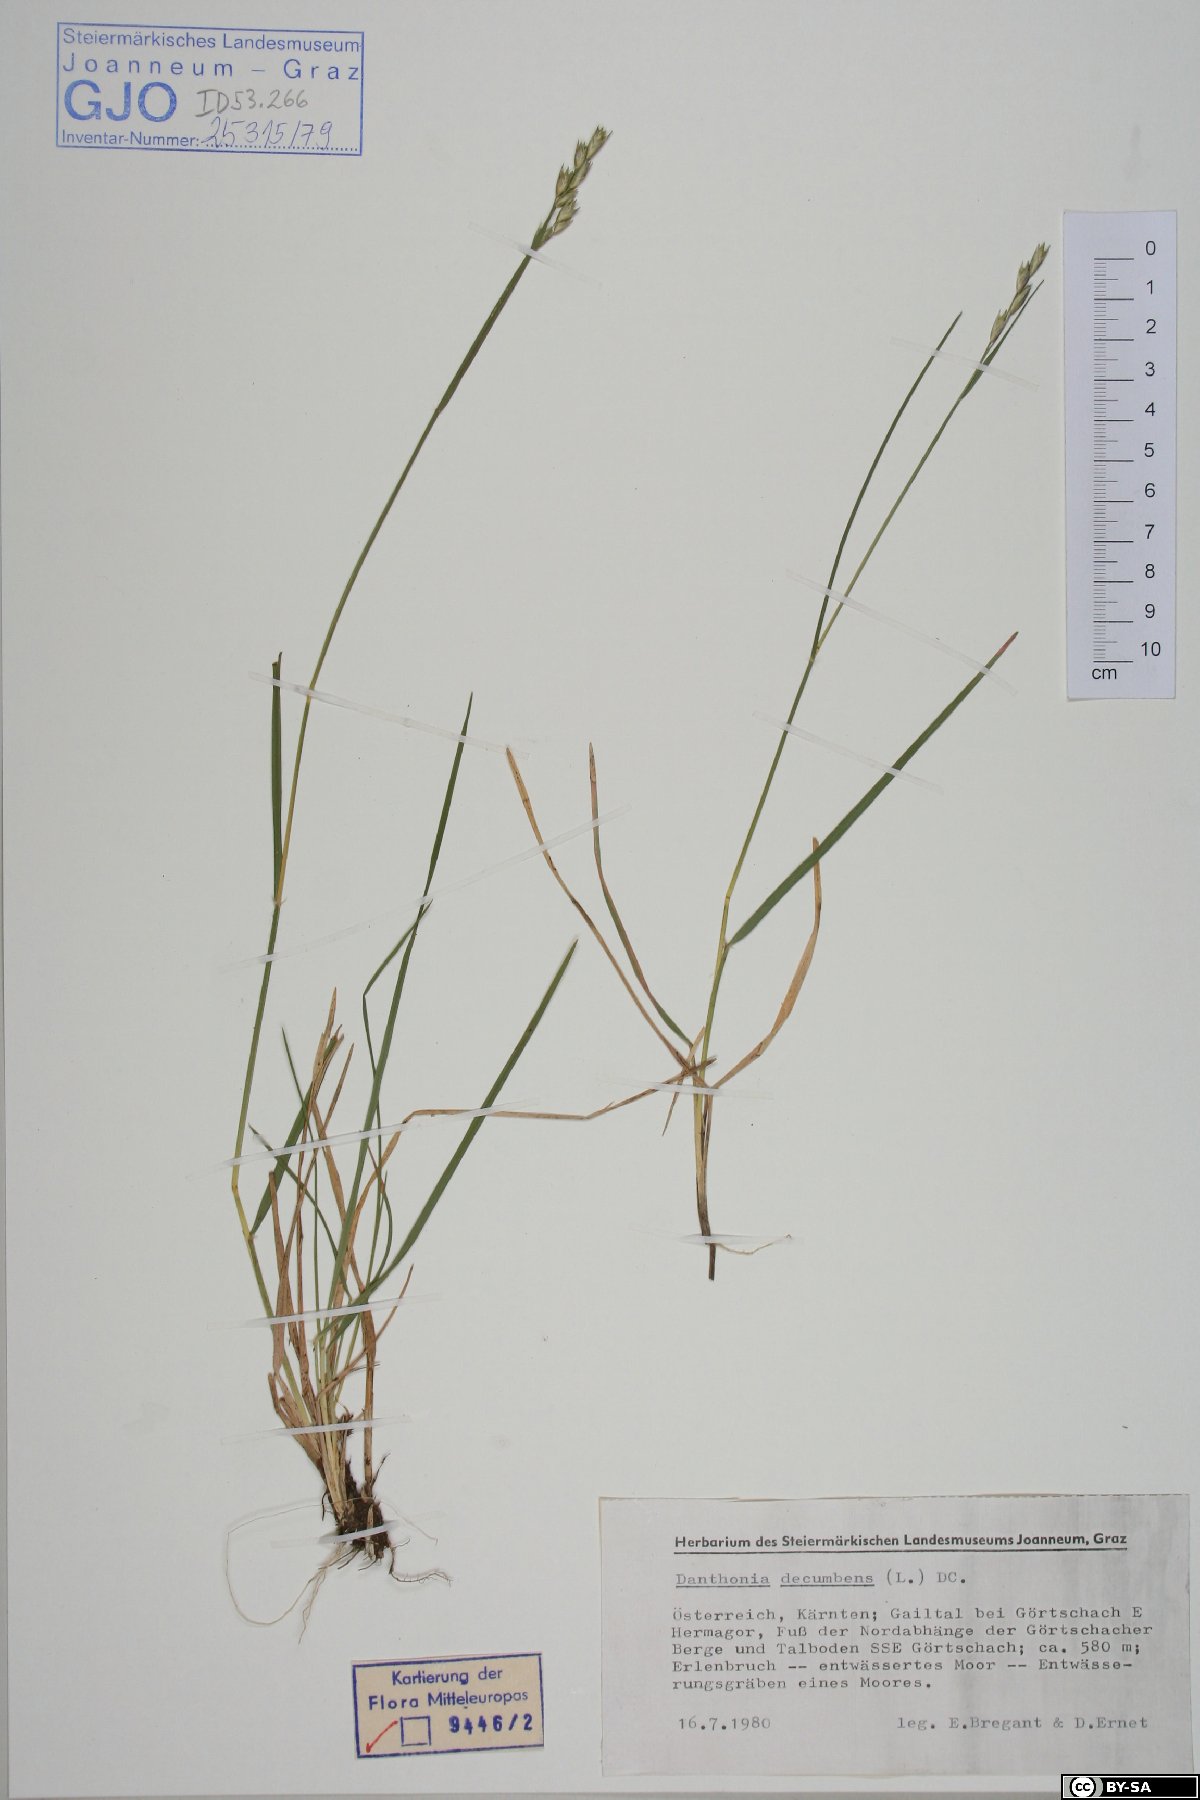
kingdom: Plantae
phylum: Tracheophyta
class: Liliopsida
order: Poales
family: Poaceae
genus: Danthonia
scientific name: Danthonia decumbens
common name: Common heathgrass
